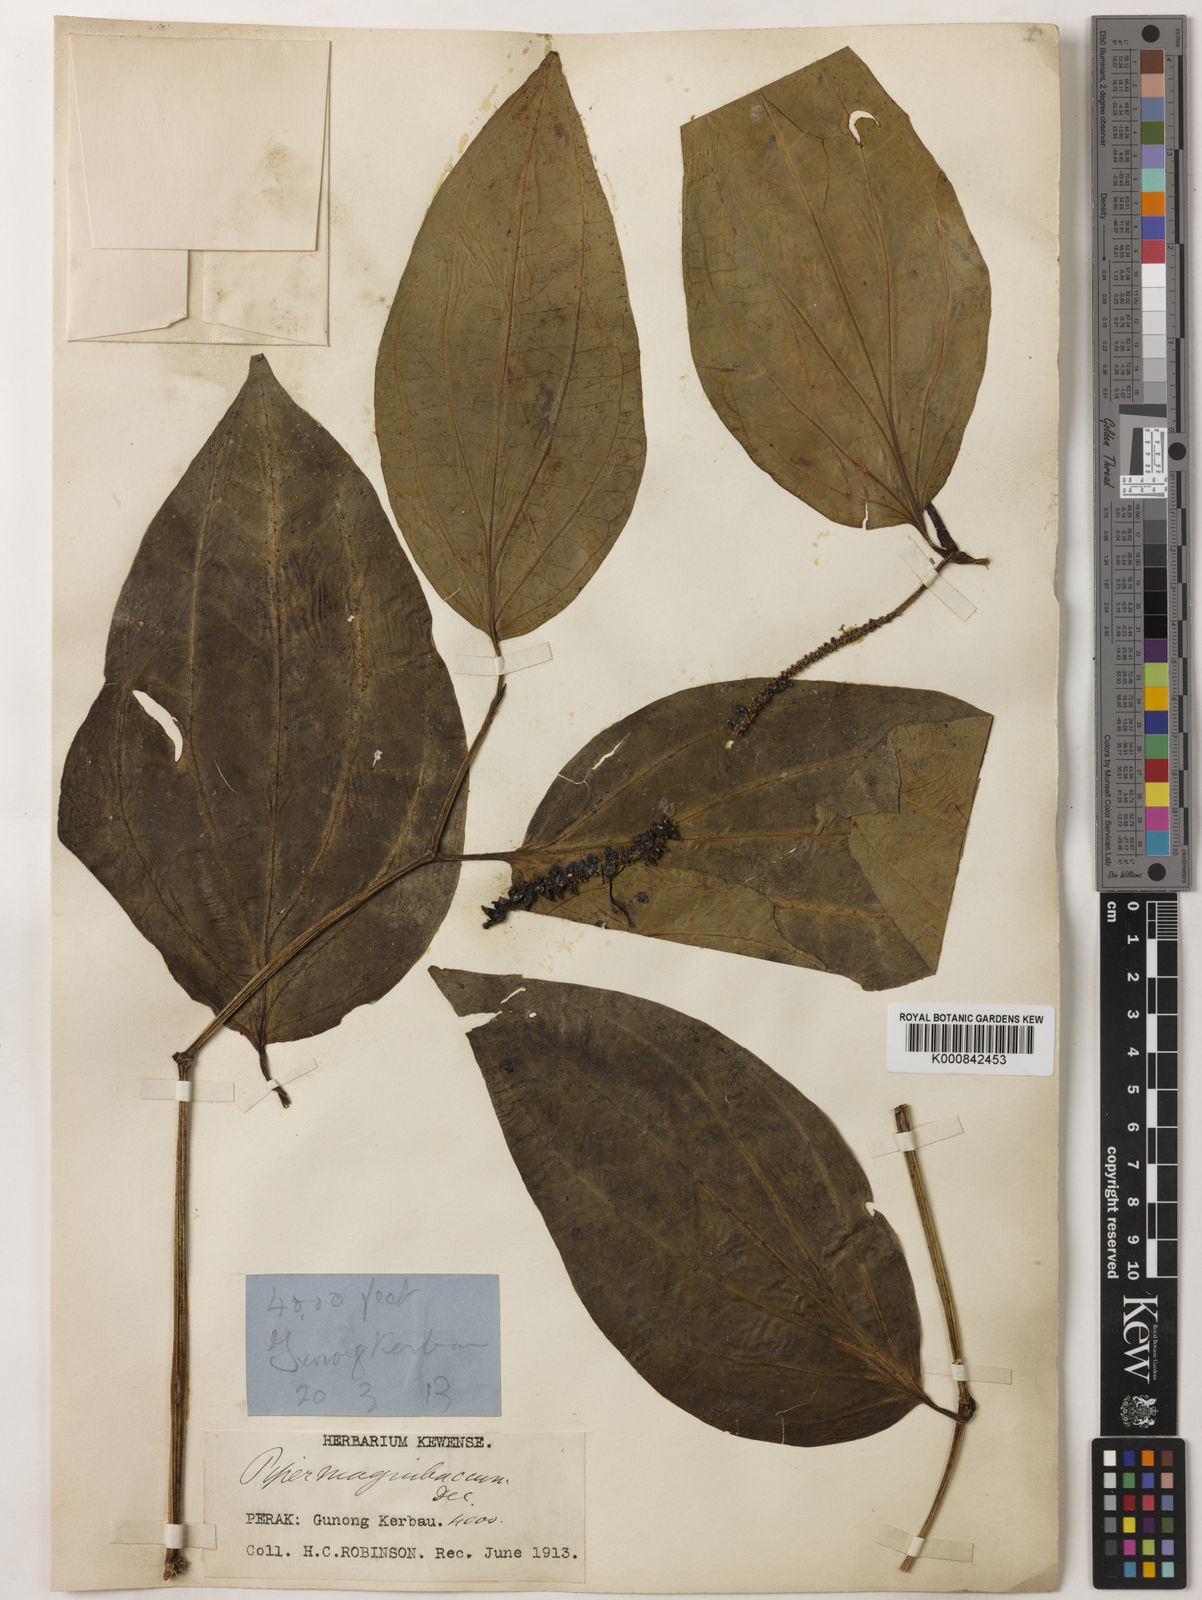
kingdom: Plantae
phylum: Tracheophyta
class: Magnoliopsida
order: Piperales
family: Piperaceae
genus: Piper
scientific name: Piper quinqueangulatum
